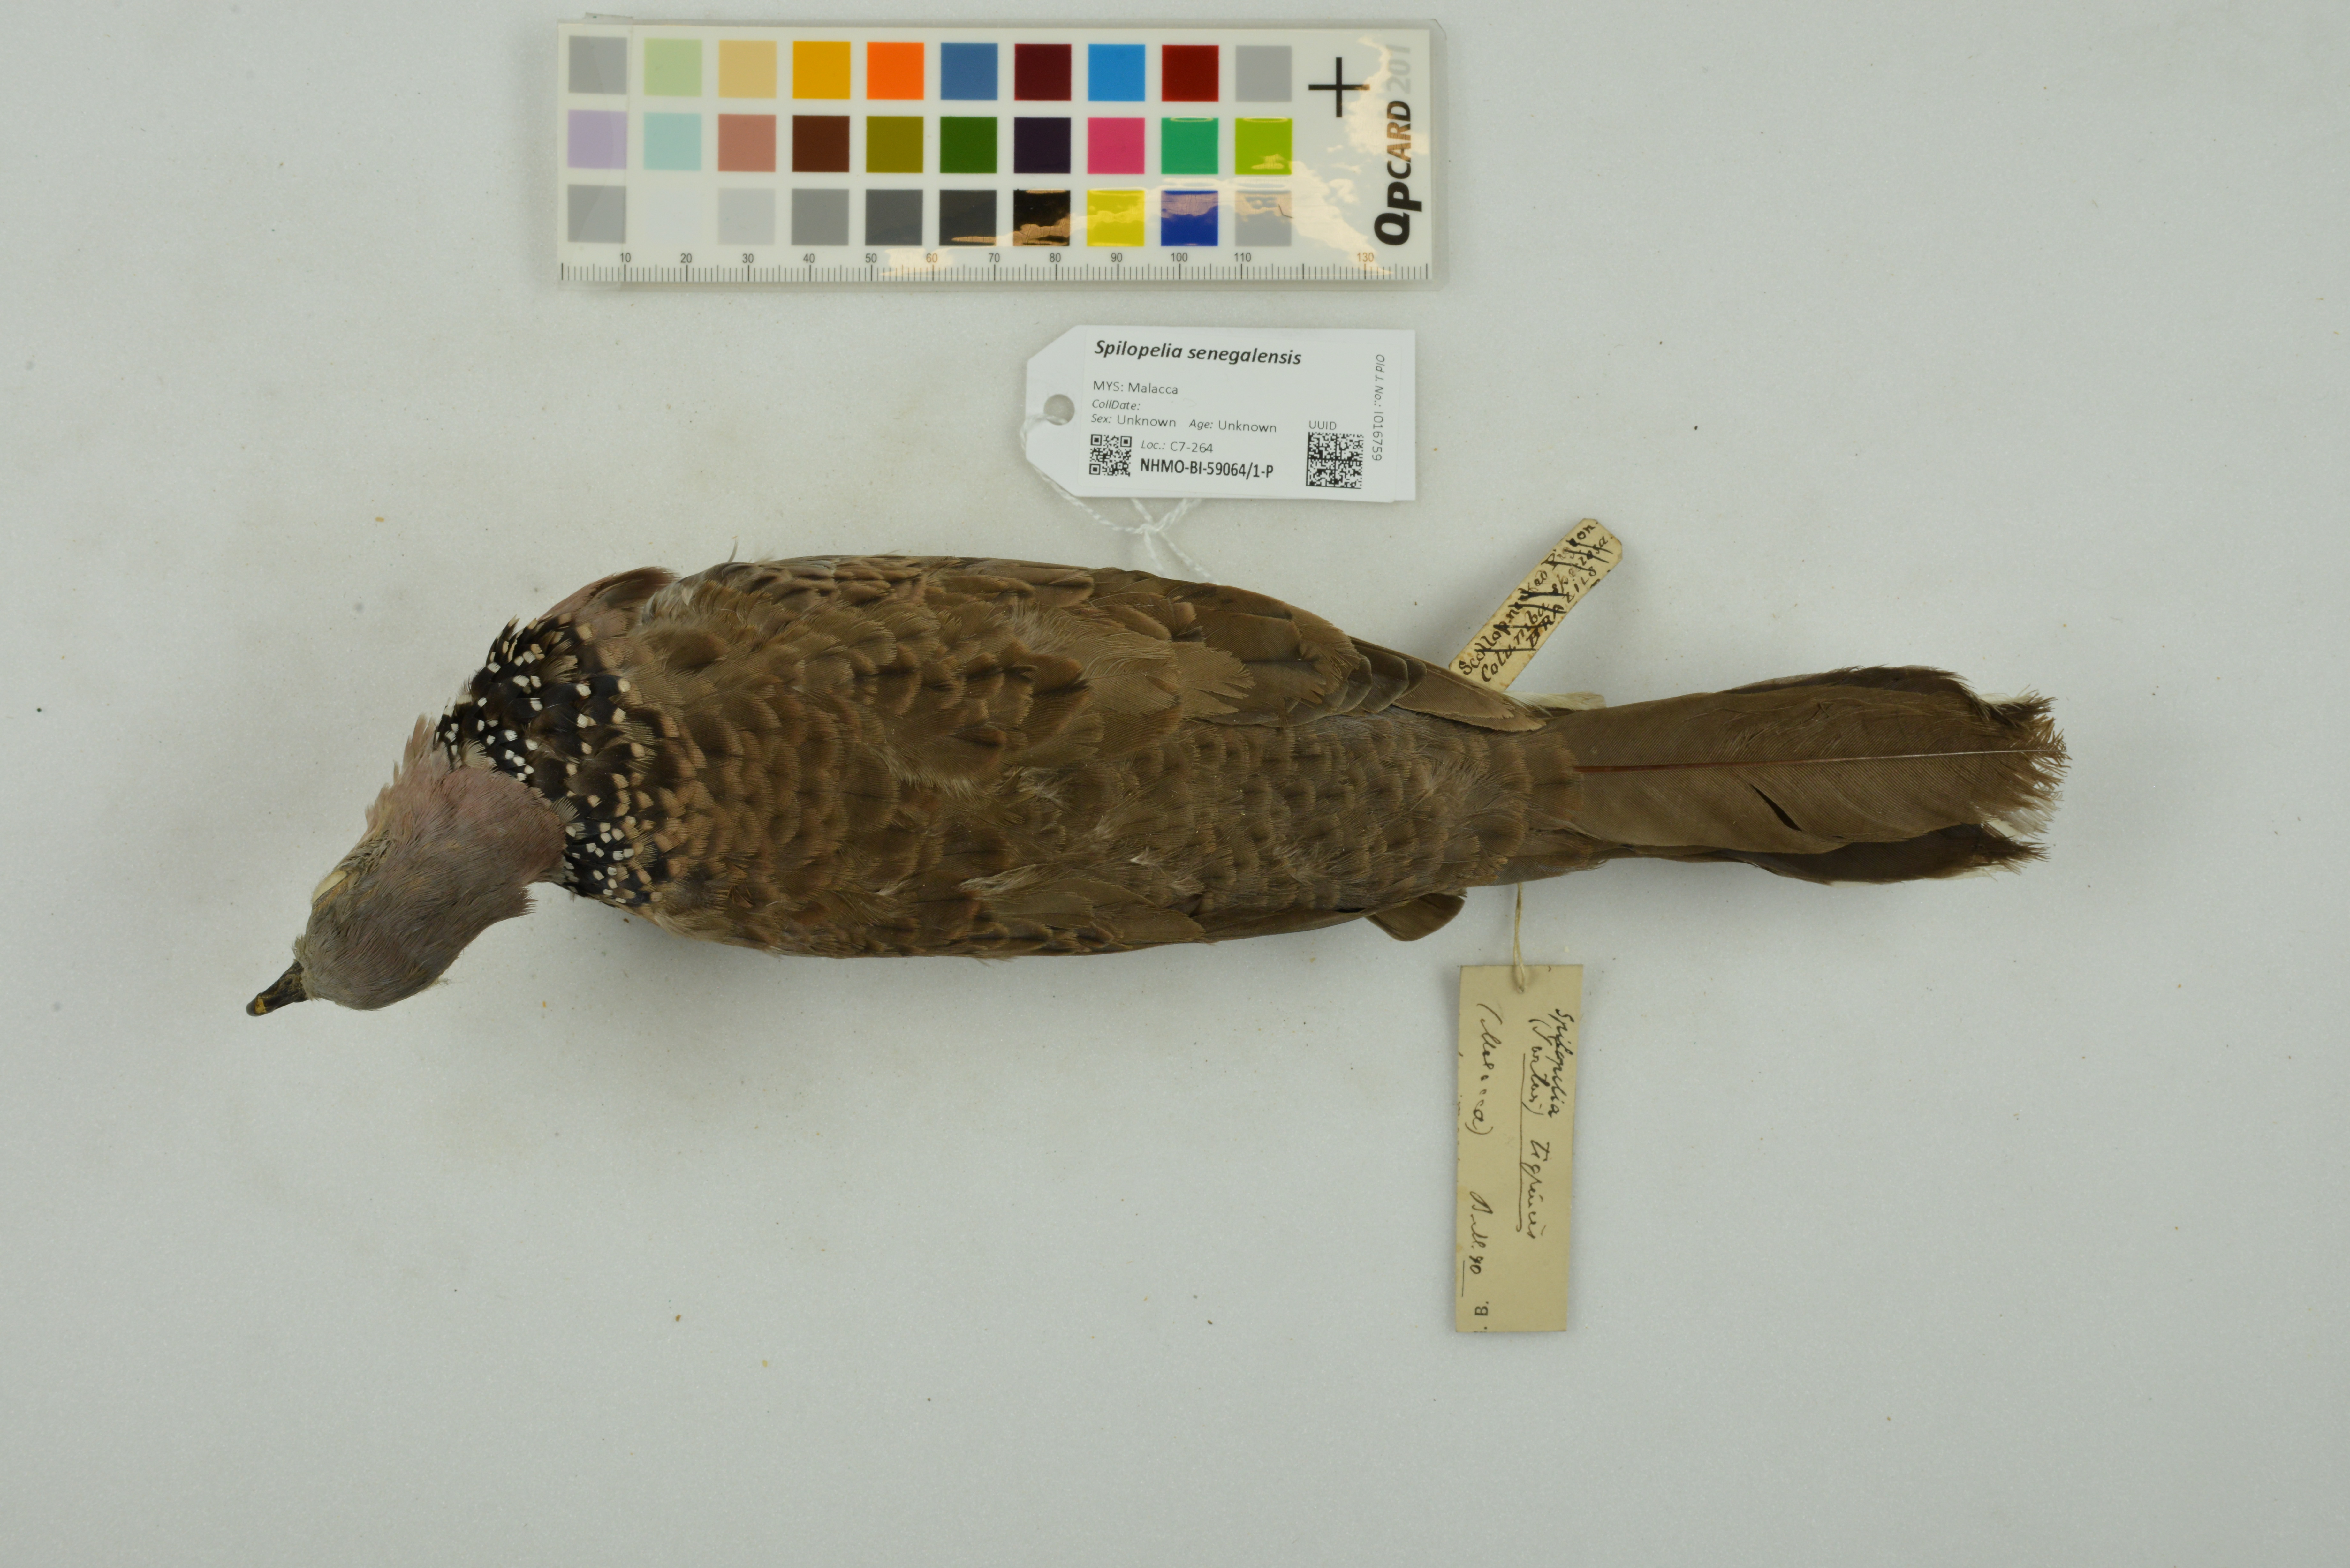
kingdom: Animalia
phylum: Chordata
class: Aves
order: Columbiformes
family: Columbidae
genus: Spilopelia
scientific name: Spilopelia senegalensis
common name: Laughing dove
